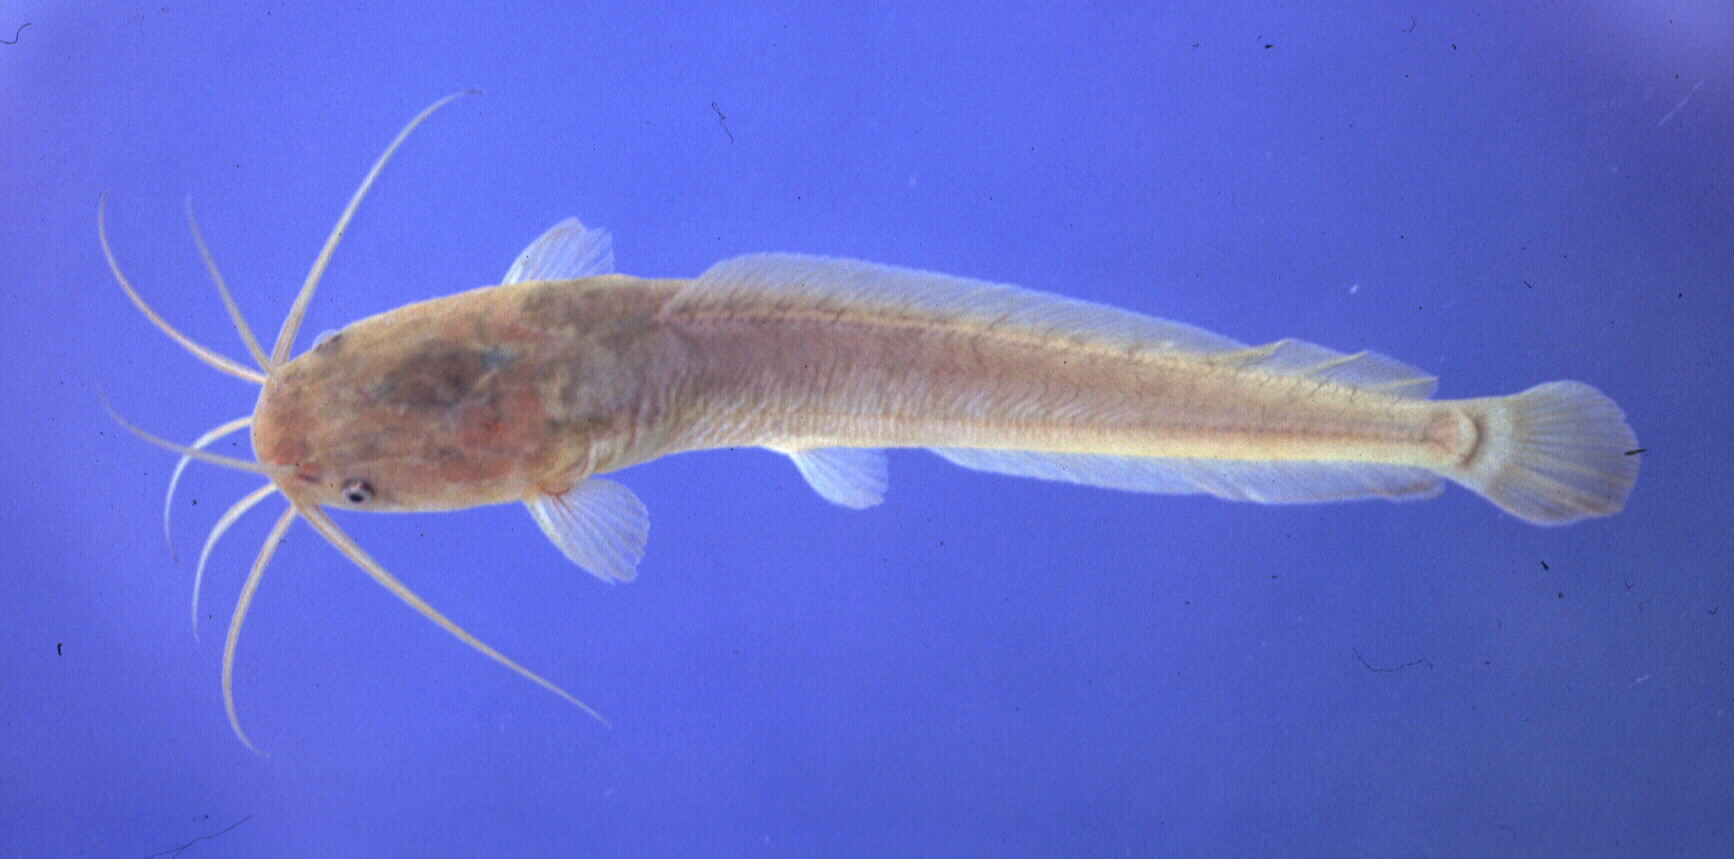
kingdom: Animalia
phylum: Chordata
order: Siluriformes
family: Clariidae
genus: Clarias
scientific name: Clarias gariepinus
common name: African catfish
